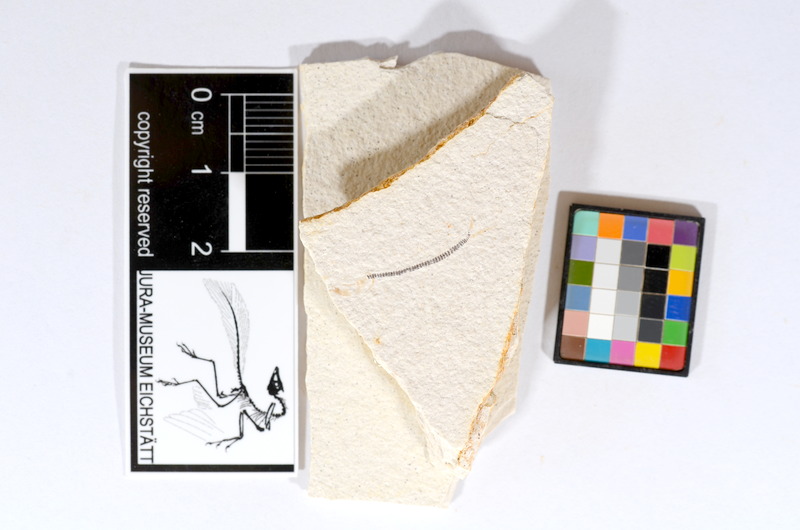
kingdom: Animalia
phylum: Chordata
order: Salmoniformes
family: Orthogonikleithridae
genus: Orthogonikleithrus
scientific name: Orthogonikleithrus hoelli
